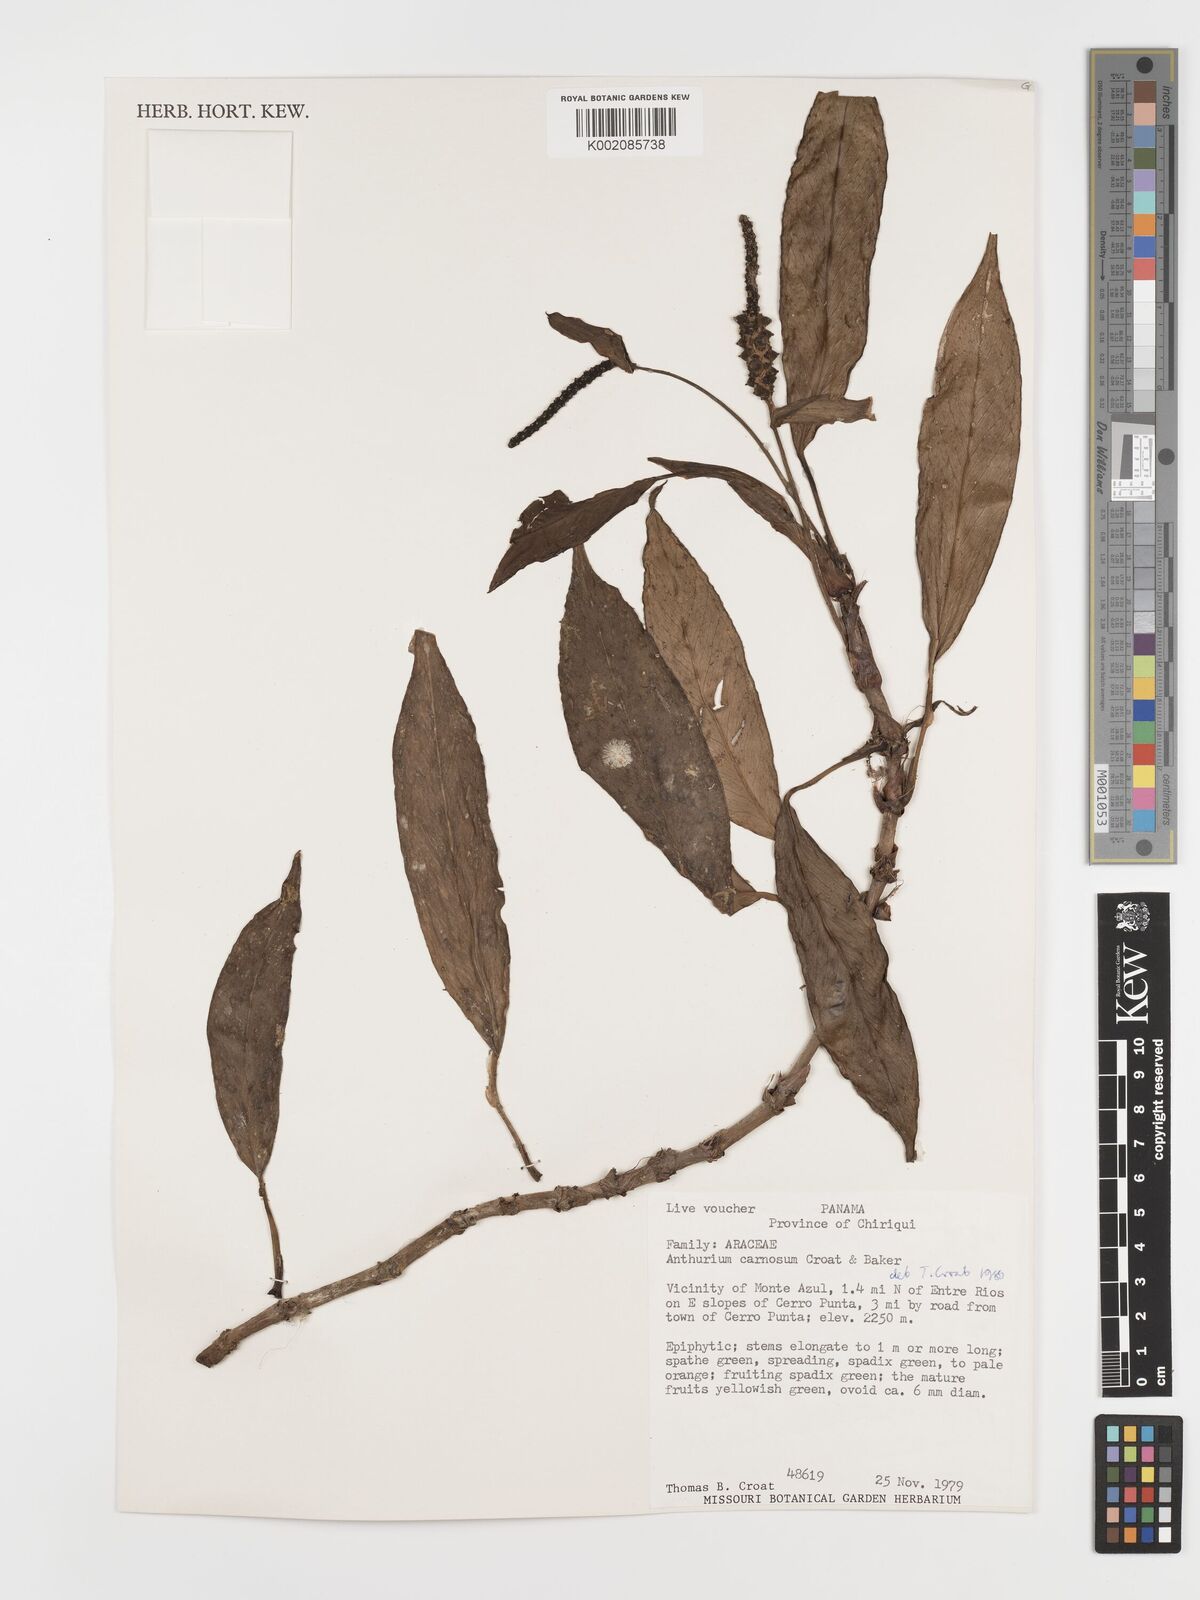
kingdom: Plantae
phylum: Tracheophyta
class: Liliopsida
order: Alismatales
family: Araceae
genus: Anthurium
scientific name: Anthurium carnosum
